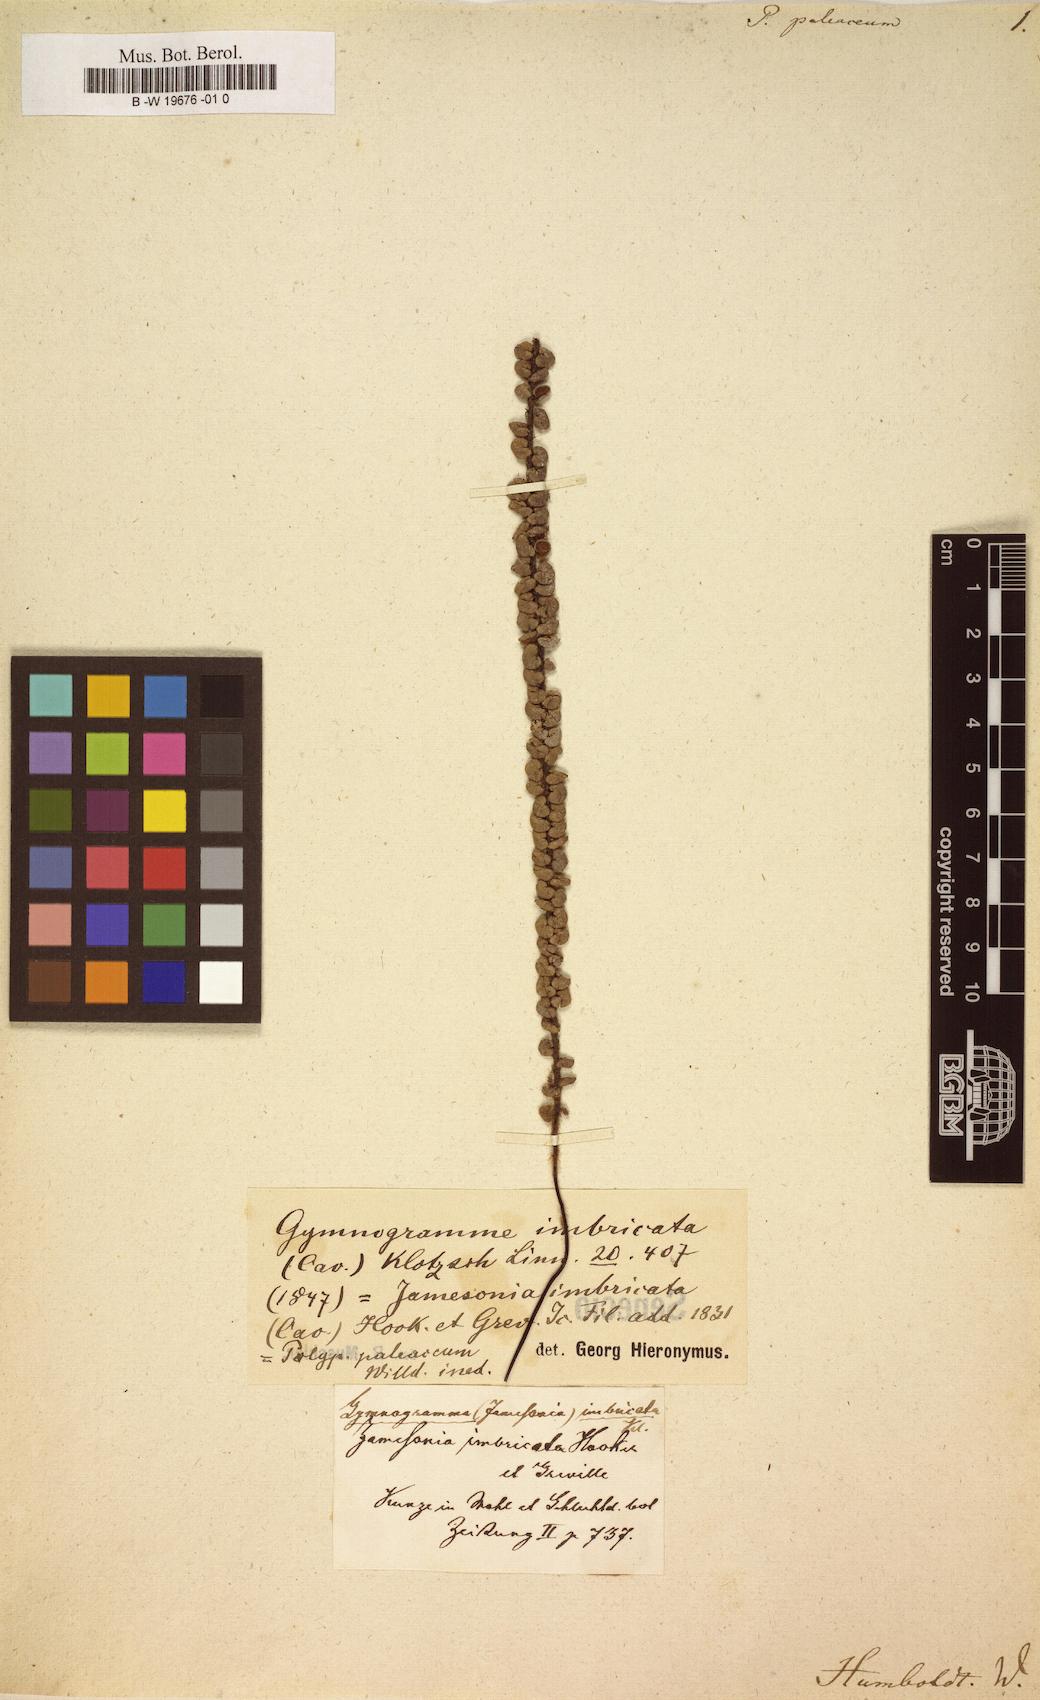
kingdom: Plantae
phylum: Tracheophyta
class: Polypodiopsida
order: Polypodiales
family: Polypodiaceae
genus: Polypodium
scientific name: Polypodium paleaceum
